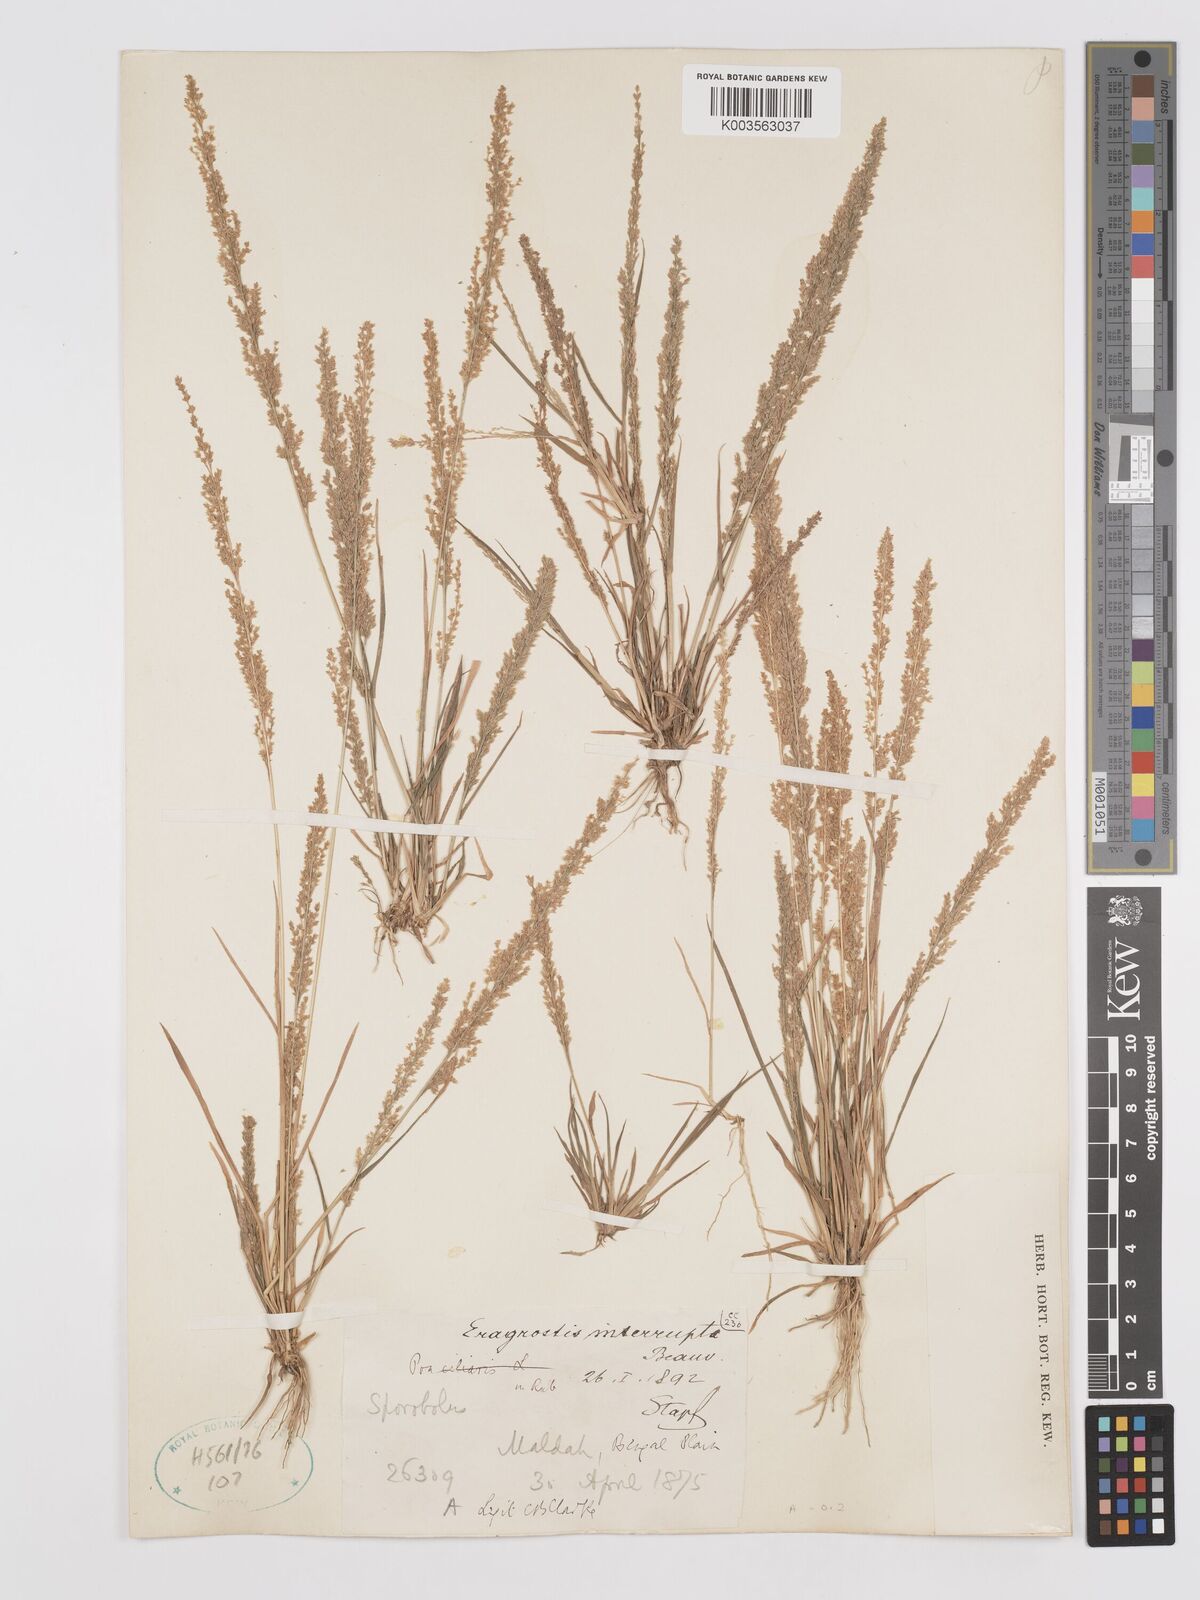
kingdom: Plantae
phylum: Tracheophyta
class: Liliopsida
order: Poales
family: Poaceae
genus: Eragrostis
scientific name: Eragrostis japonica
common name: Pond lovegrass
